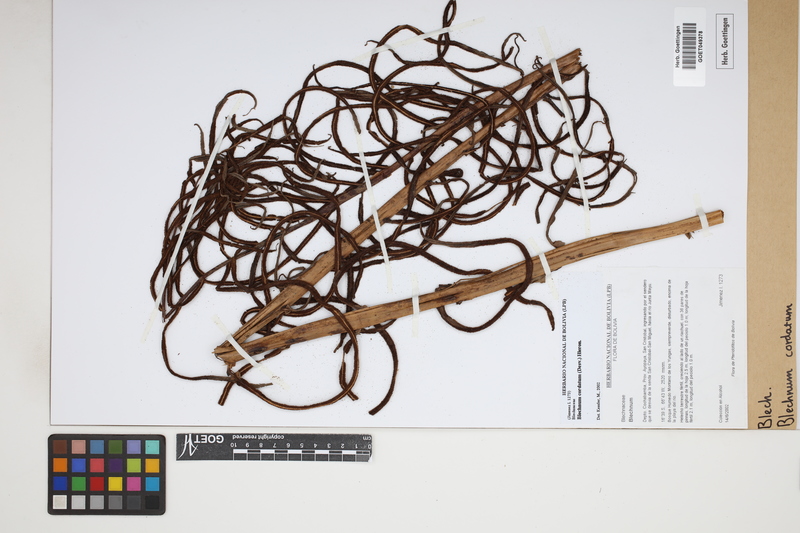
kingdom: Plantae
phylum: Tracheophyta
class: Polypodiopsida
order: Polypodiales
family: Blechnaceae
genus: Parablechnum
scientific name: Parablechnum cordatum
